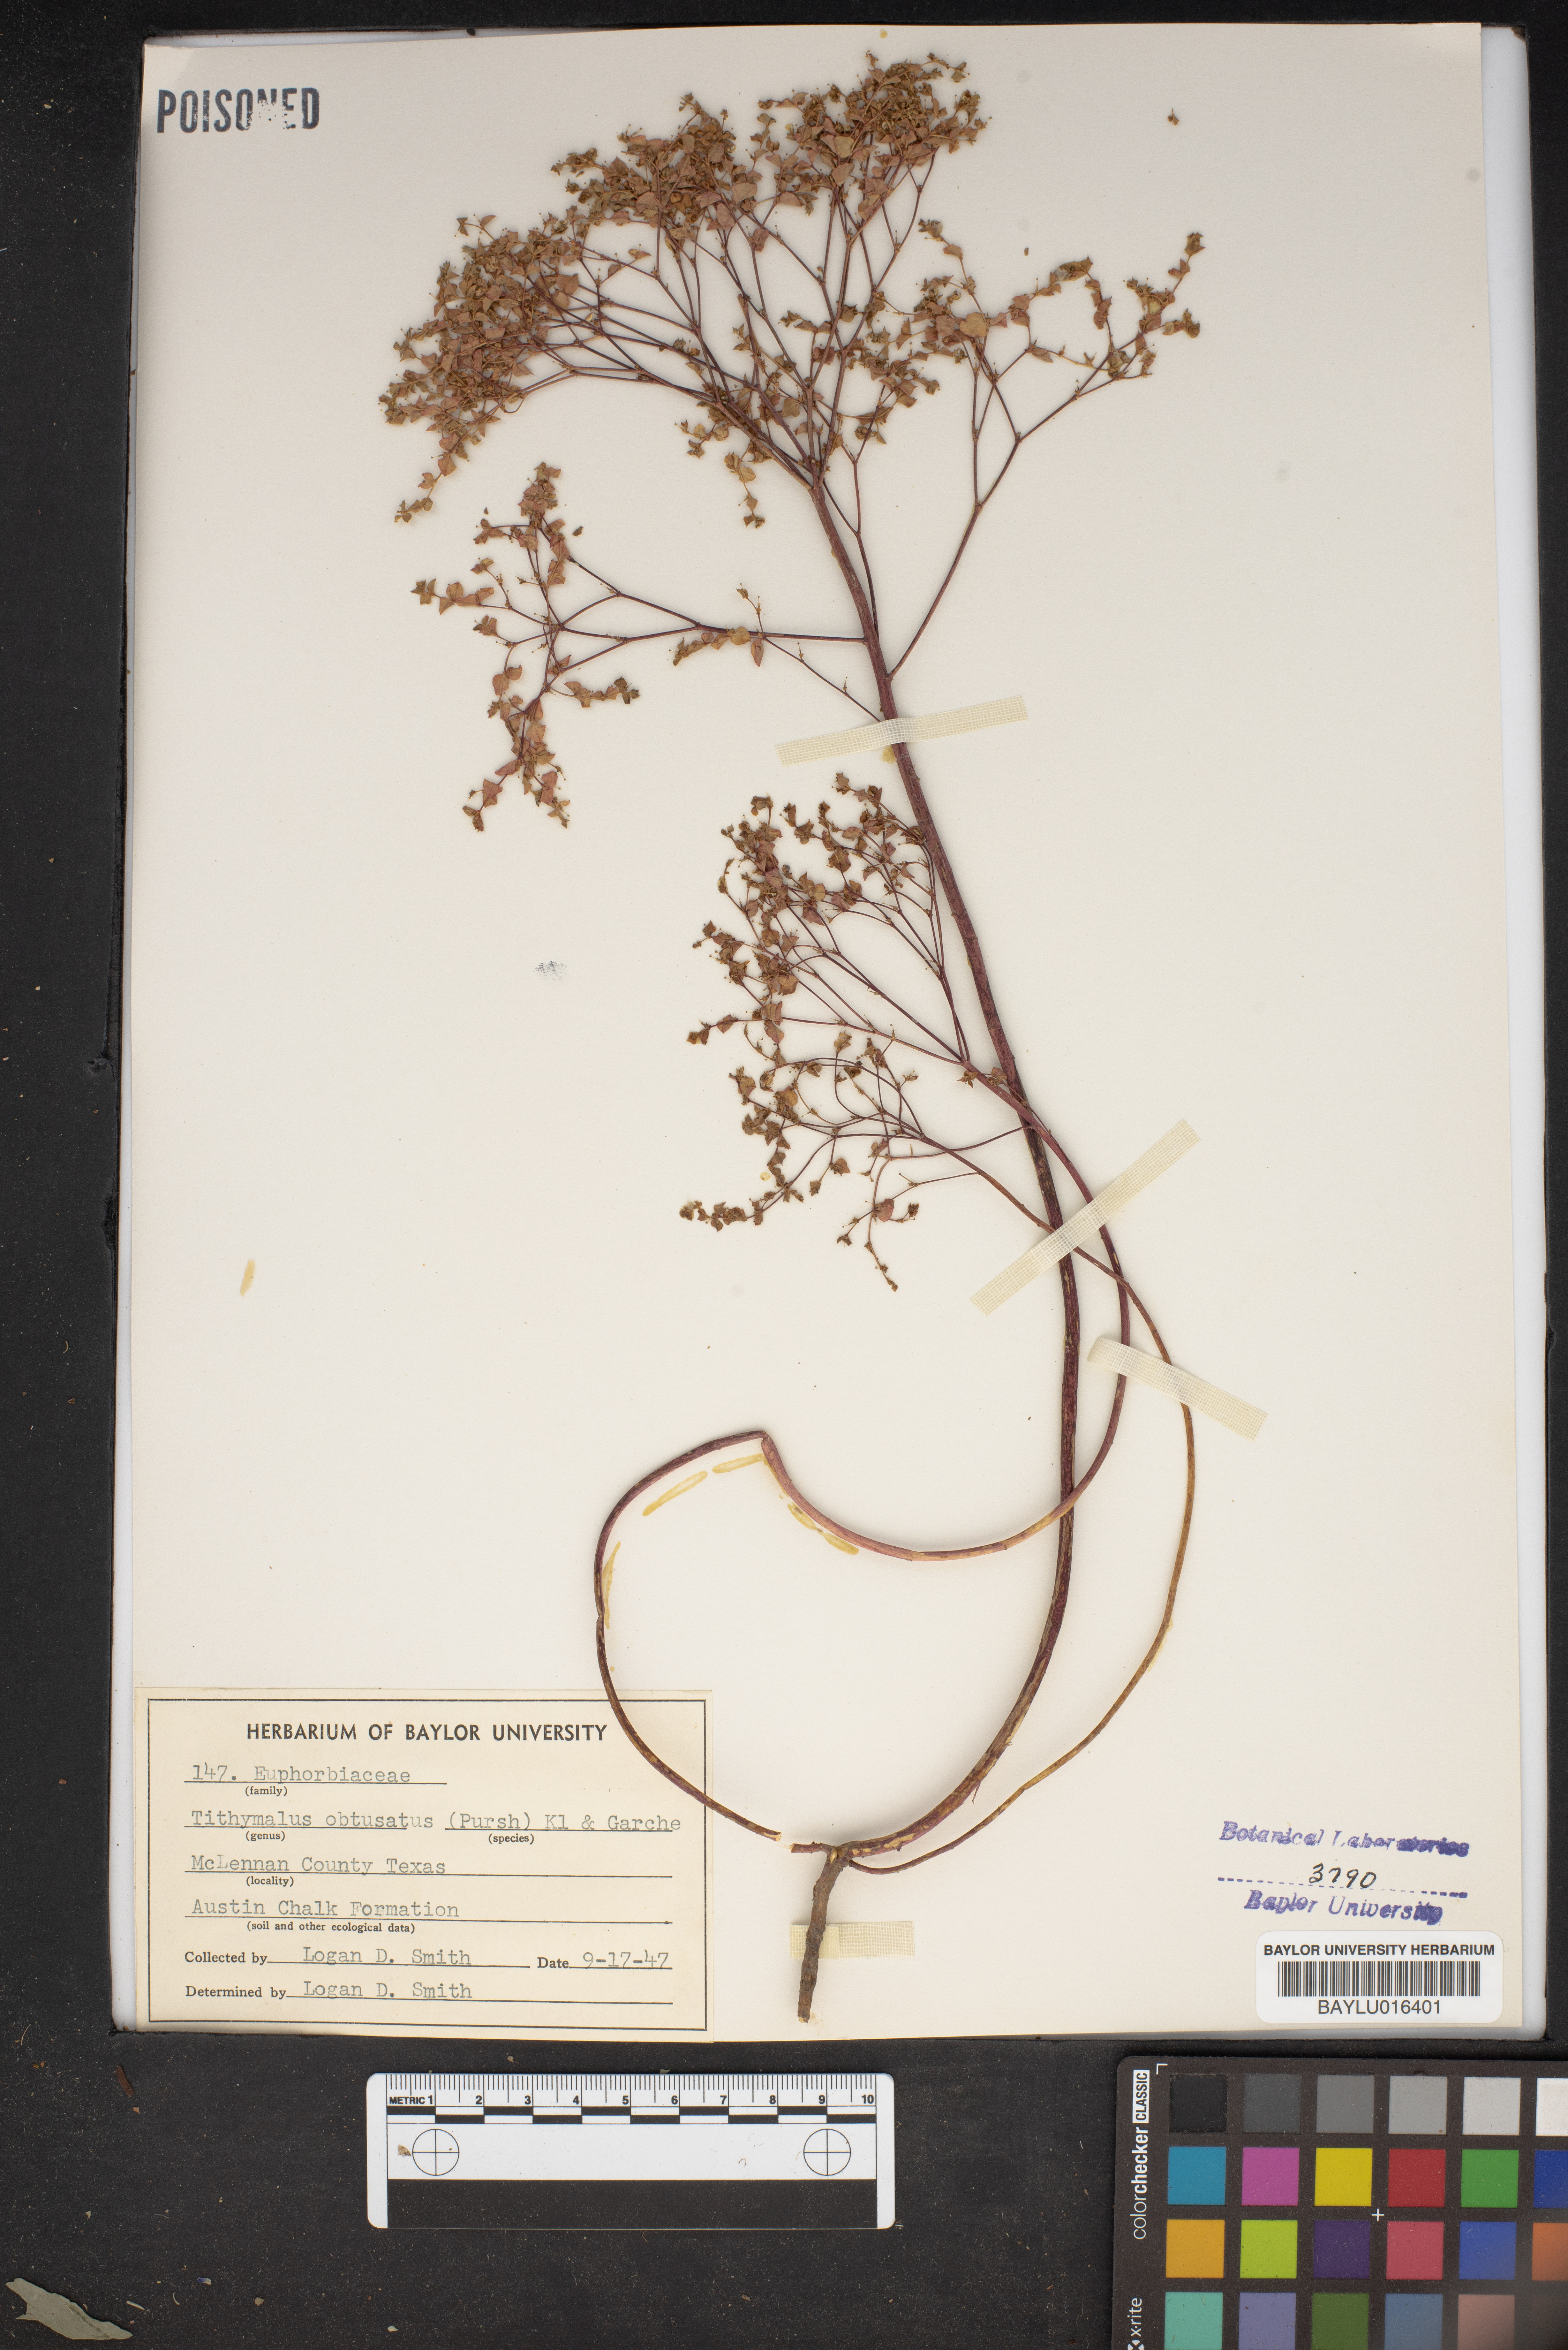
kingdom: Plantae
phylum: Tracheophyta
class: Magnoliopsida
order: Malpighiales
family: Euphorbiaceae
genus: Euphorbia
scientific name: Euphorbia spathulata
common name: Blunt spurge
